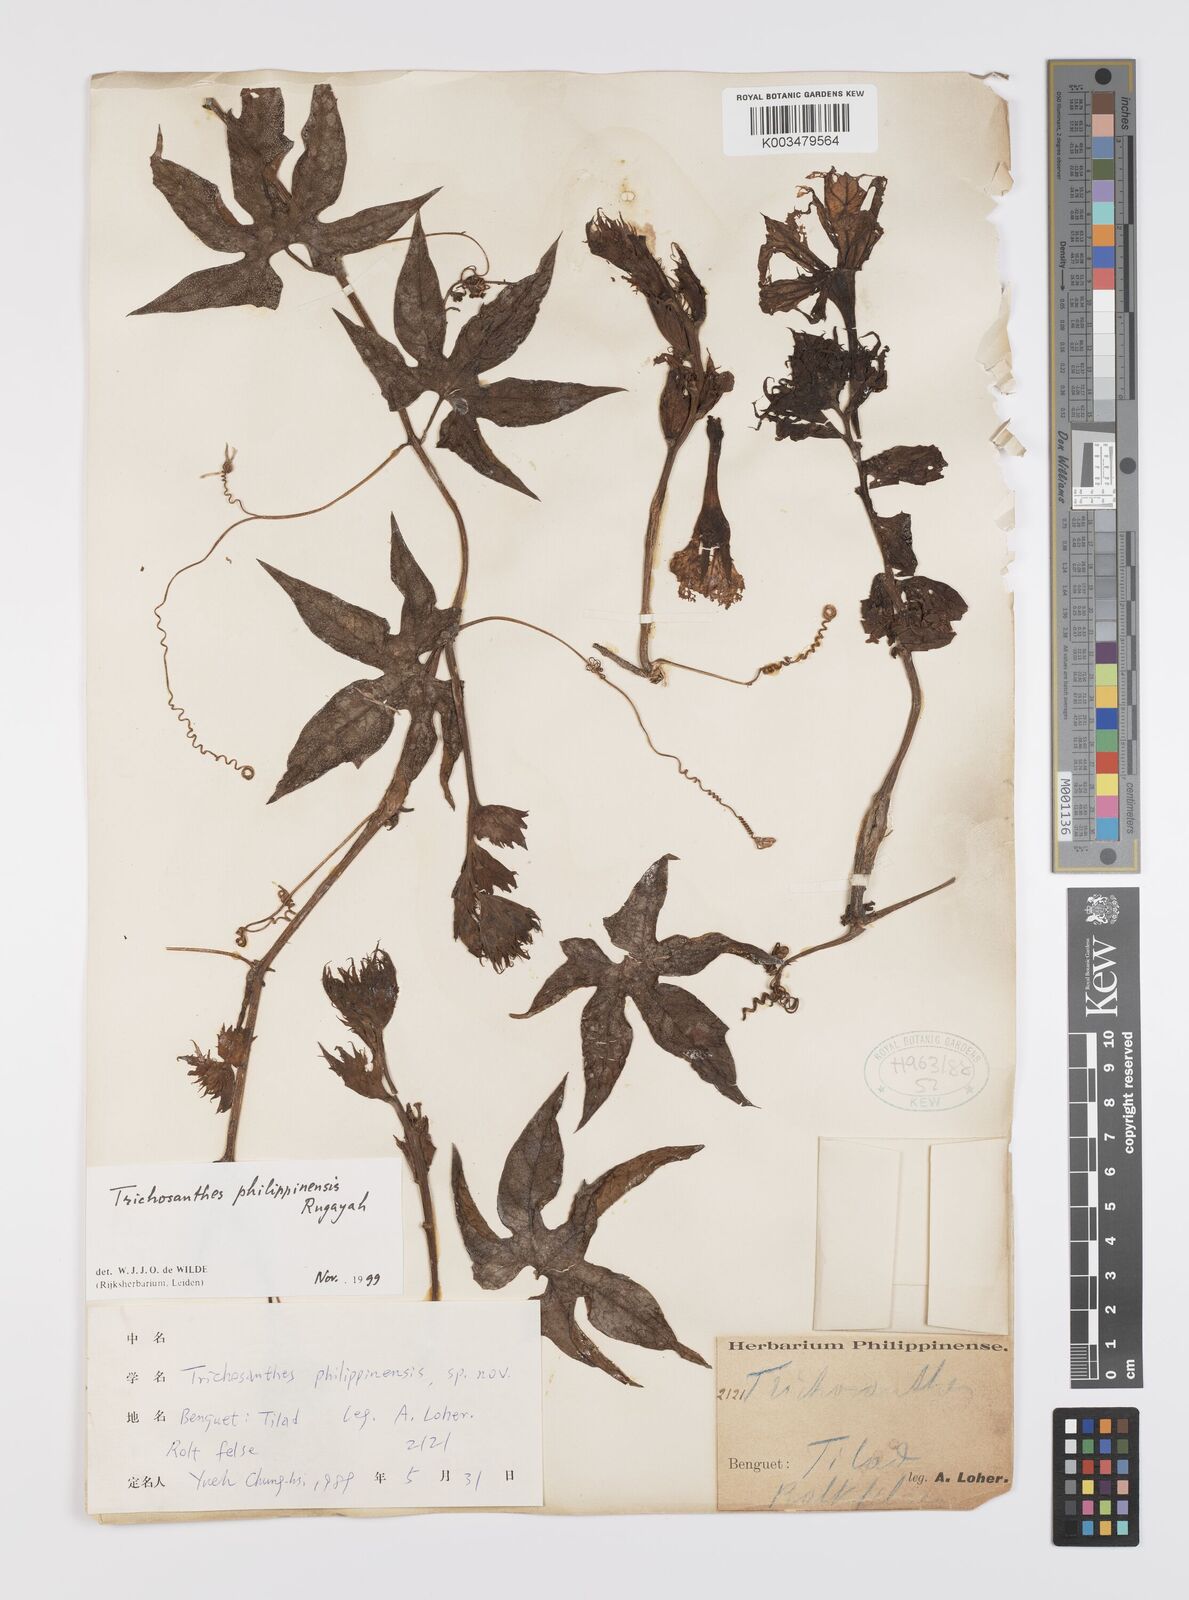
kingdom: Plantae
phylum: Tracheophyta
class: Magnoliopsida
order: Cucurbitales
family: Cucurbitaceae
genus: Trichosanthes
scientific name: Trichosanthes philippinensis
